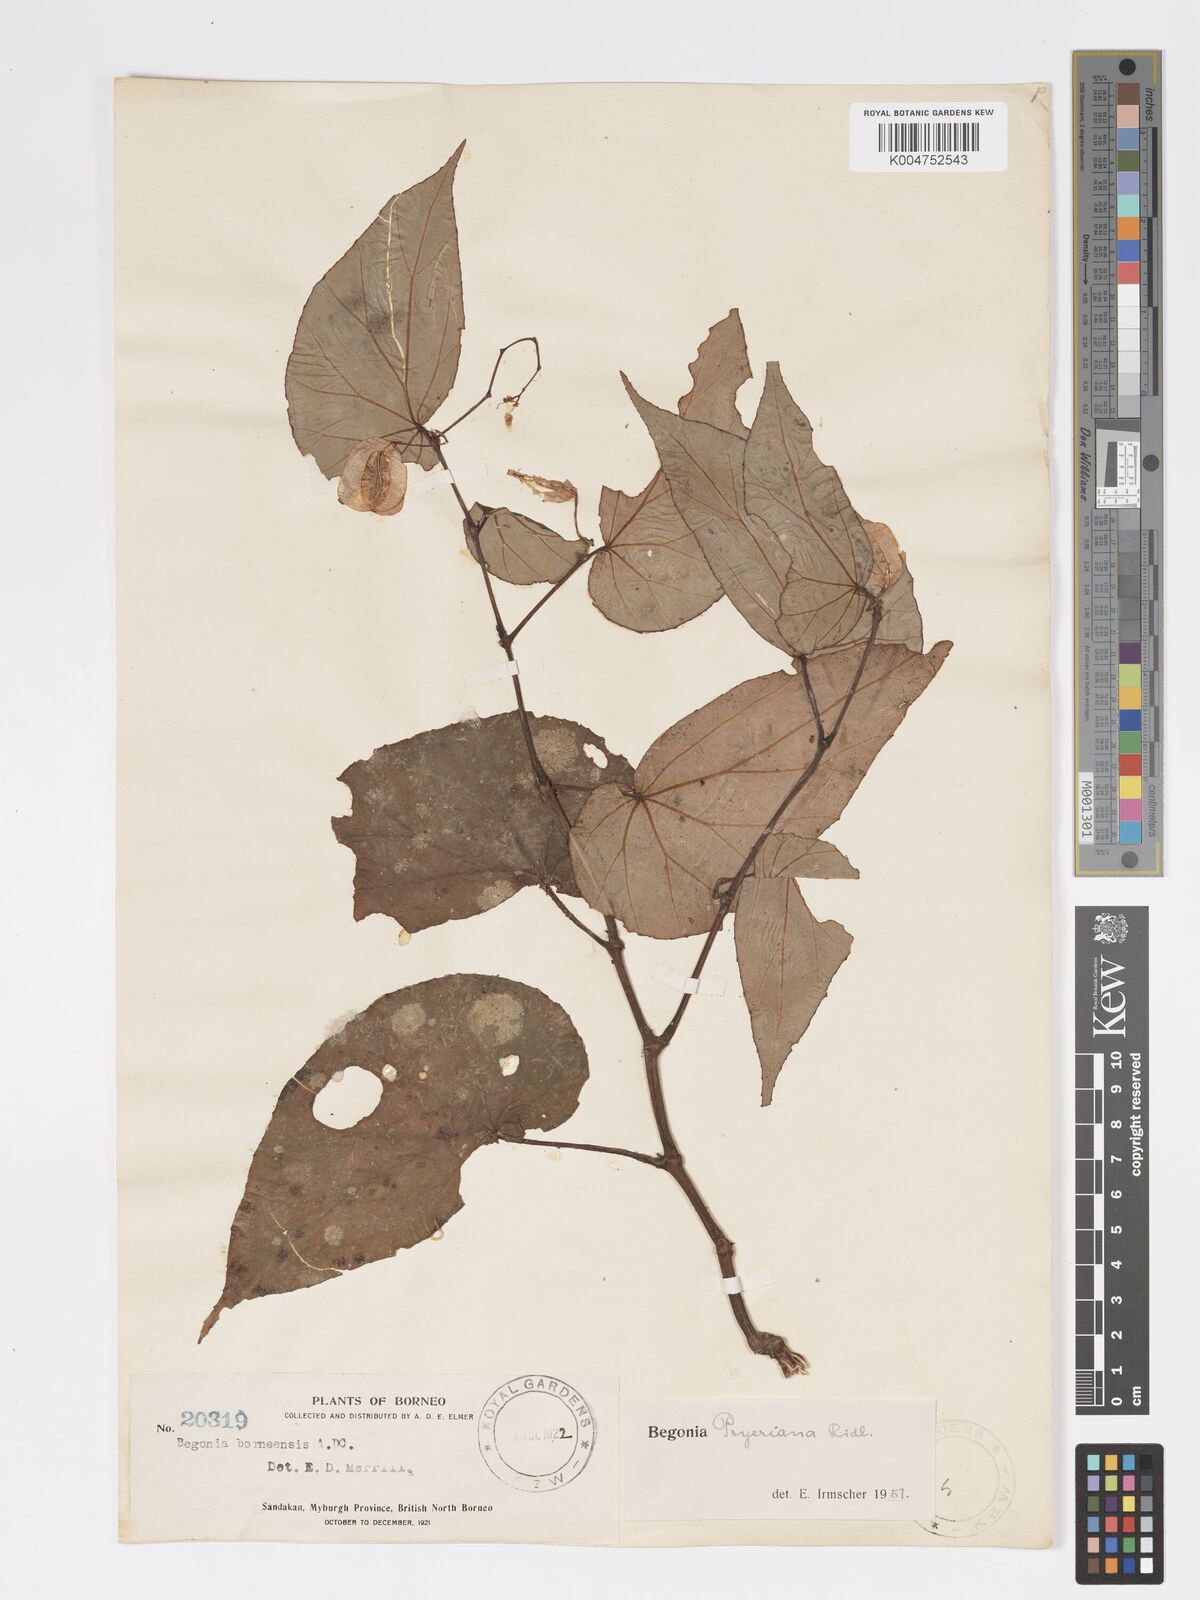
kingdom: Plantae
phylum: Tracheophyta
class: Magnoliopsida
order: Cucurbitales
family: Begoniaceae
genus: Begonia
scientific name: Begonia pryeriana
